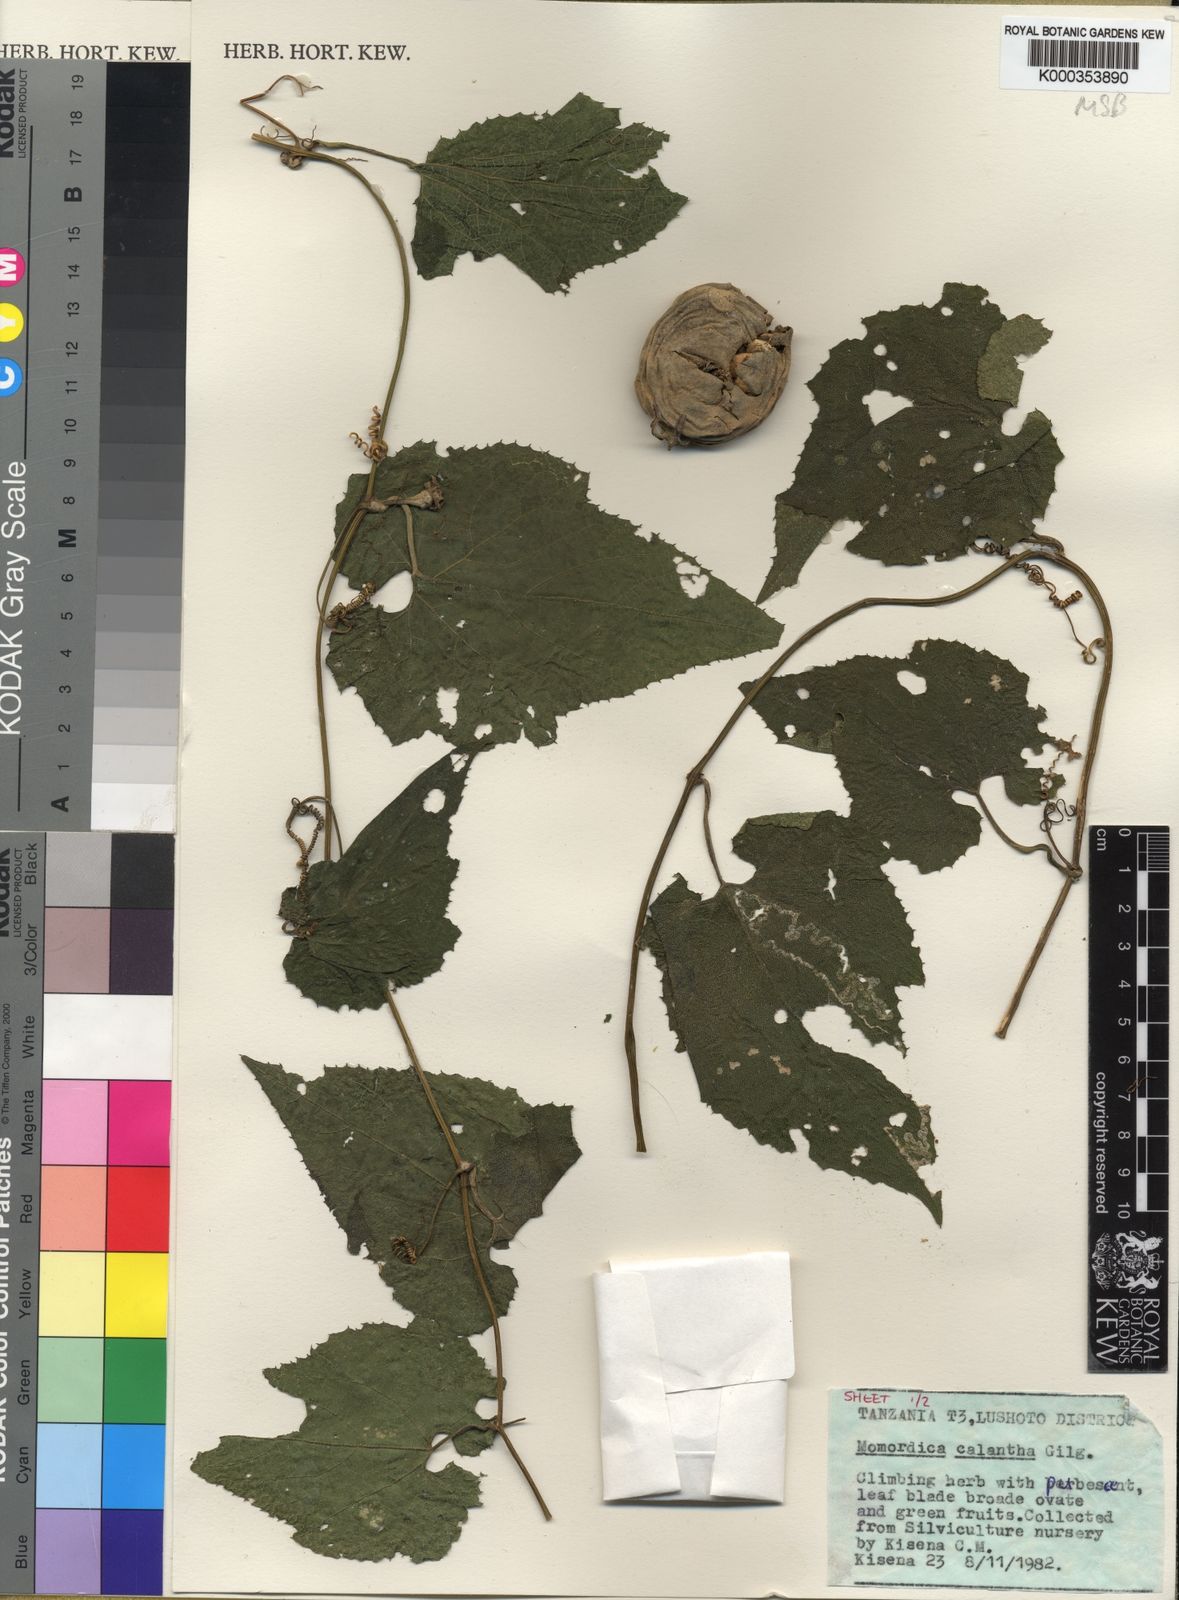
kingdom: Plantae
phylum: Tracheophyta
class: Magnoliopsida
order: Cucurbitales
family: Cucurbitaceae
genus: Momordica
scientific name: Momordica calantha
